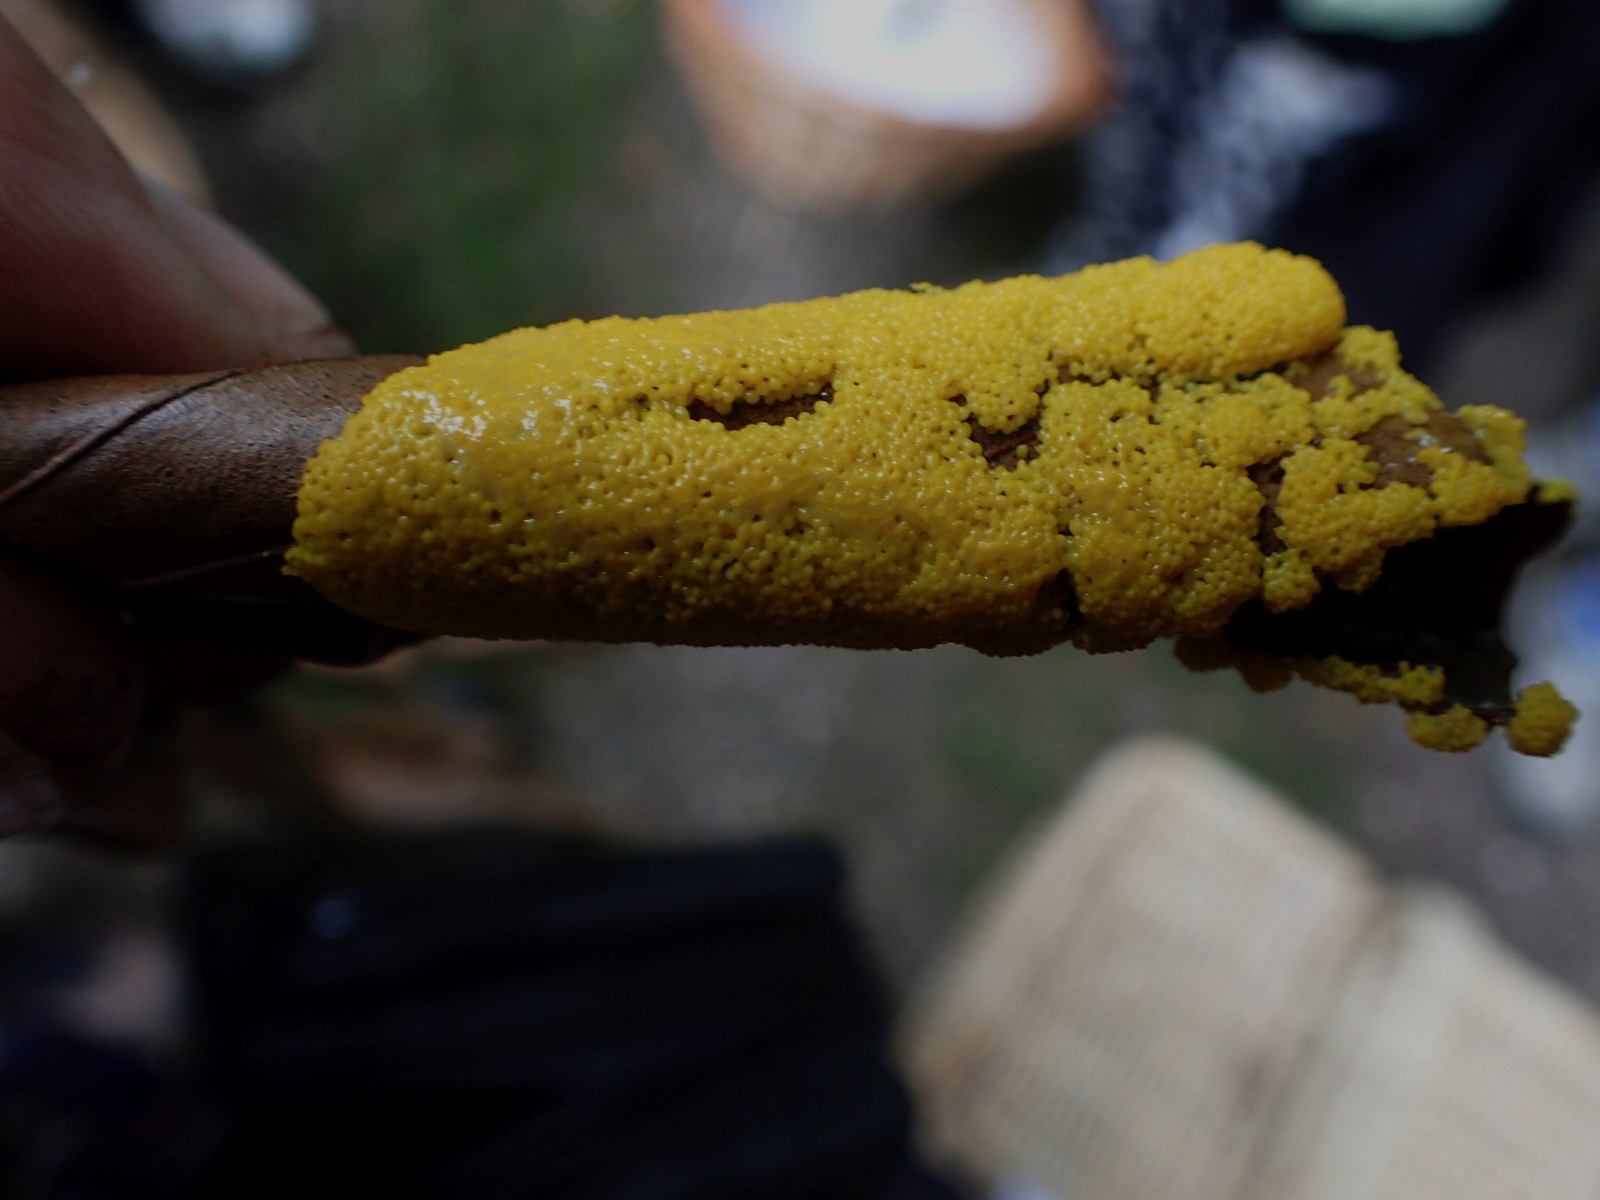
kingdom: Protozoa
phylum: Mycetozoa
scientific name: Mycetozoa
